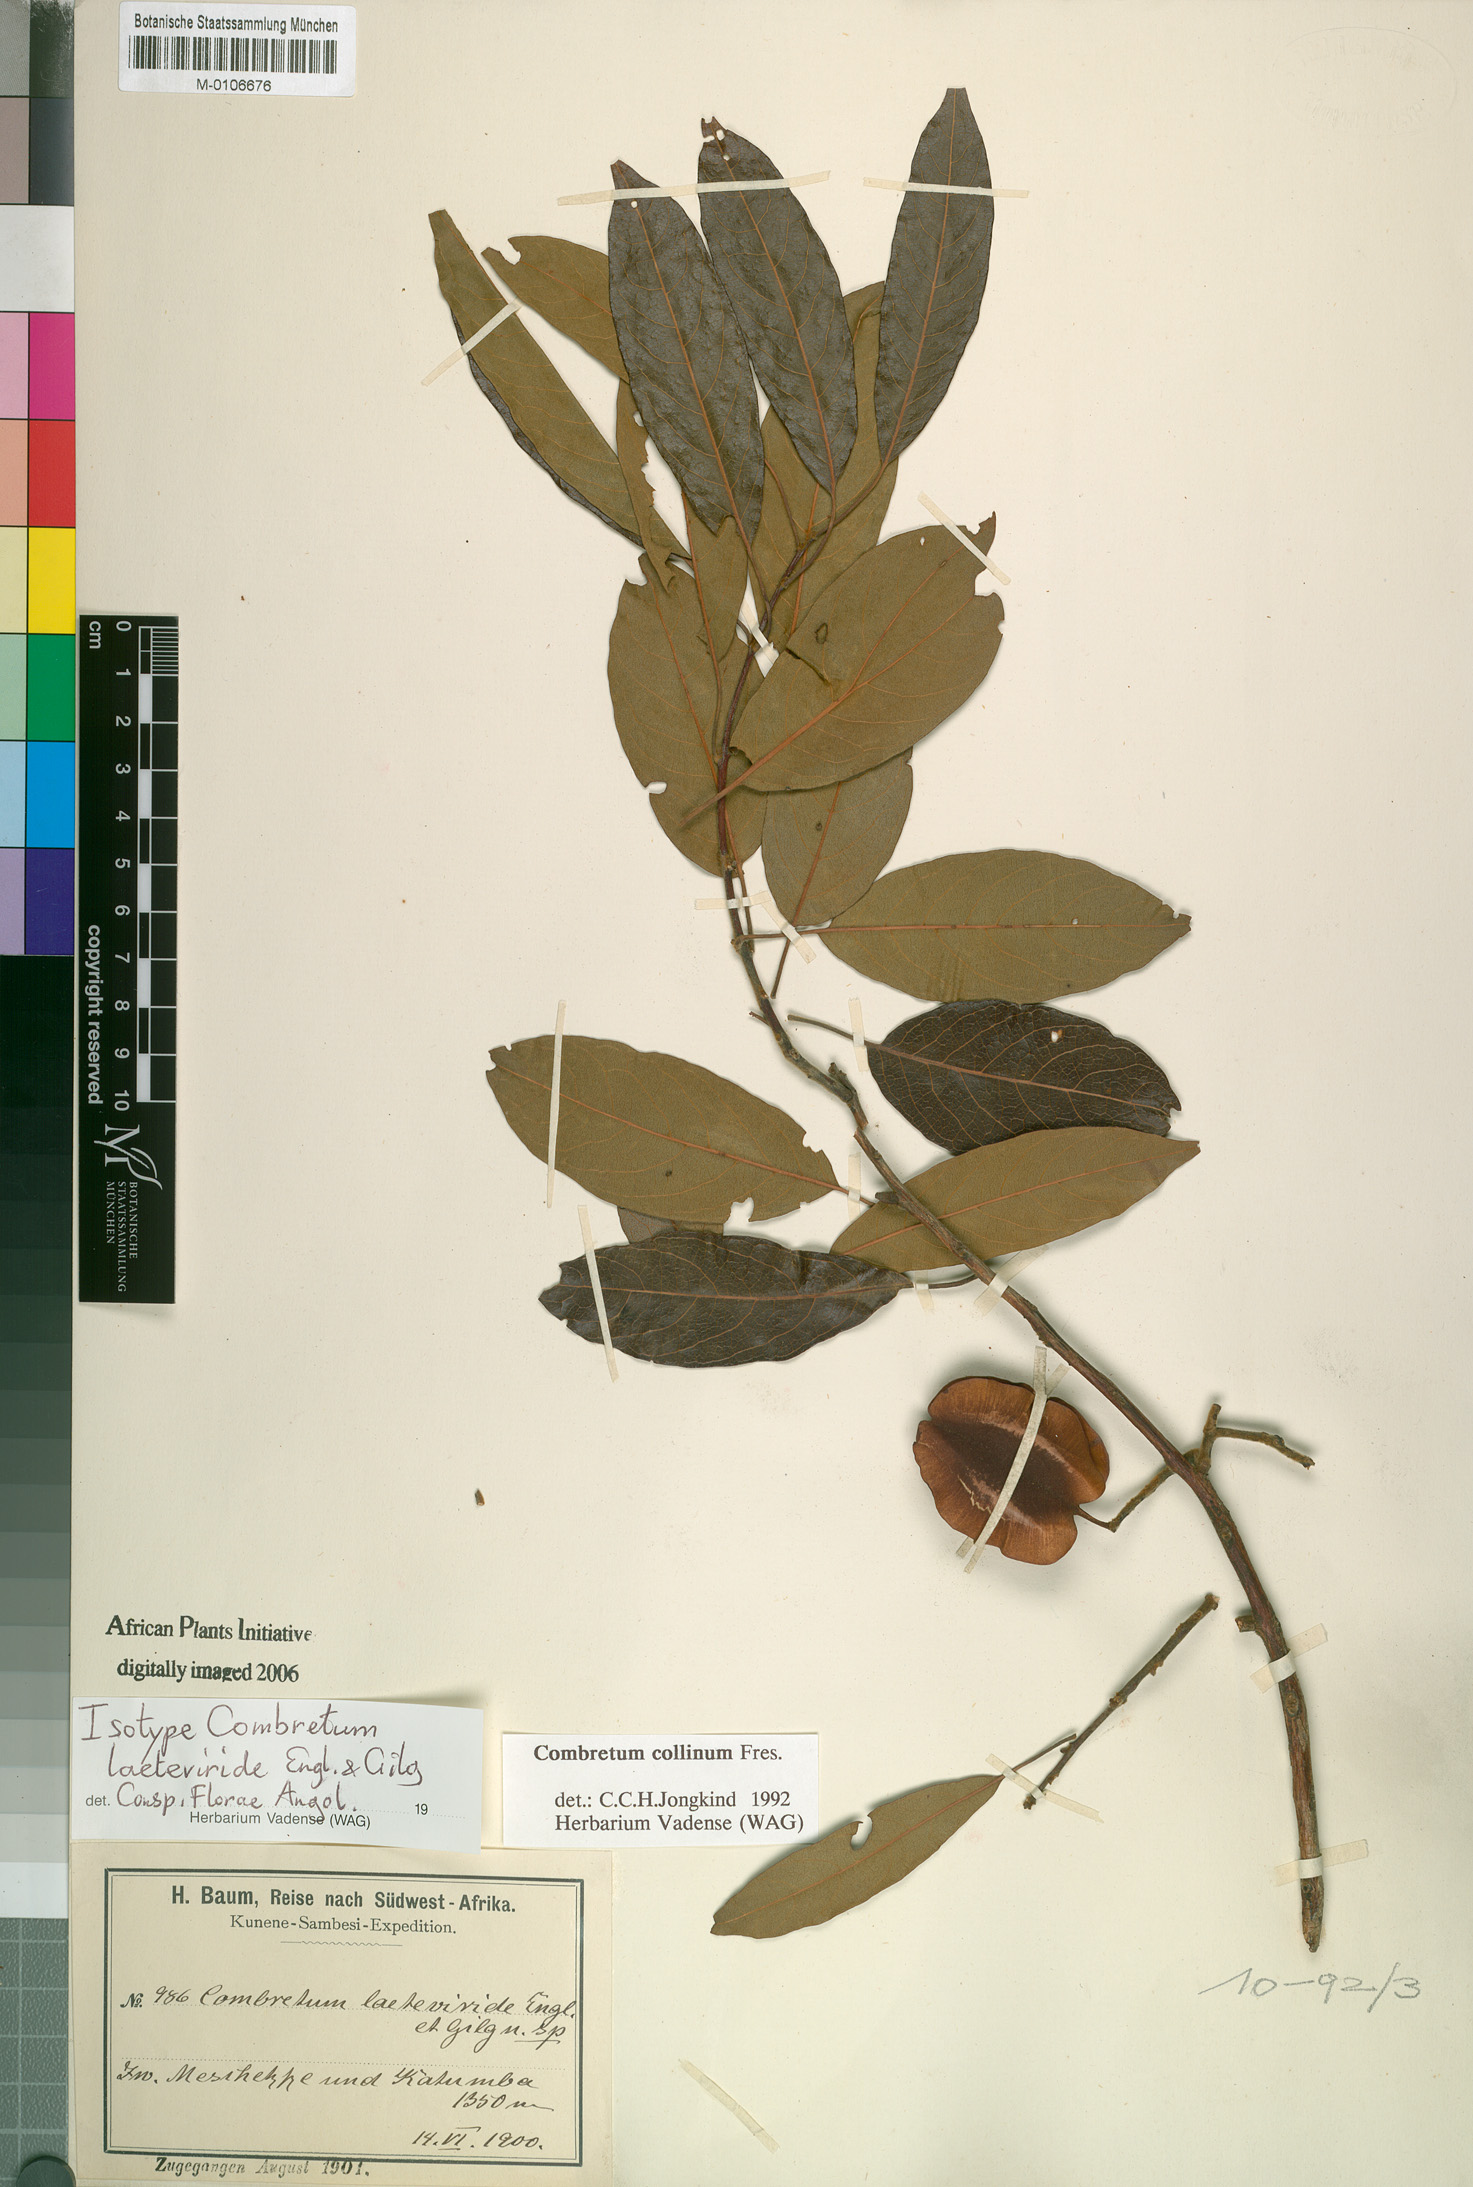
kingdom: Plantae
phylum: Tracheophyta
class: Magnoliopsida
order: Myrtales
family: Combretaceae
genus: Combretum
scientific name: Combretum collinum
